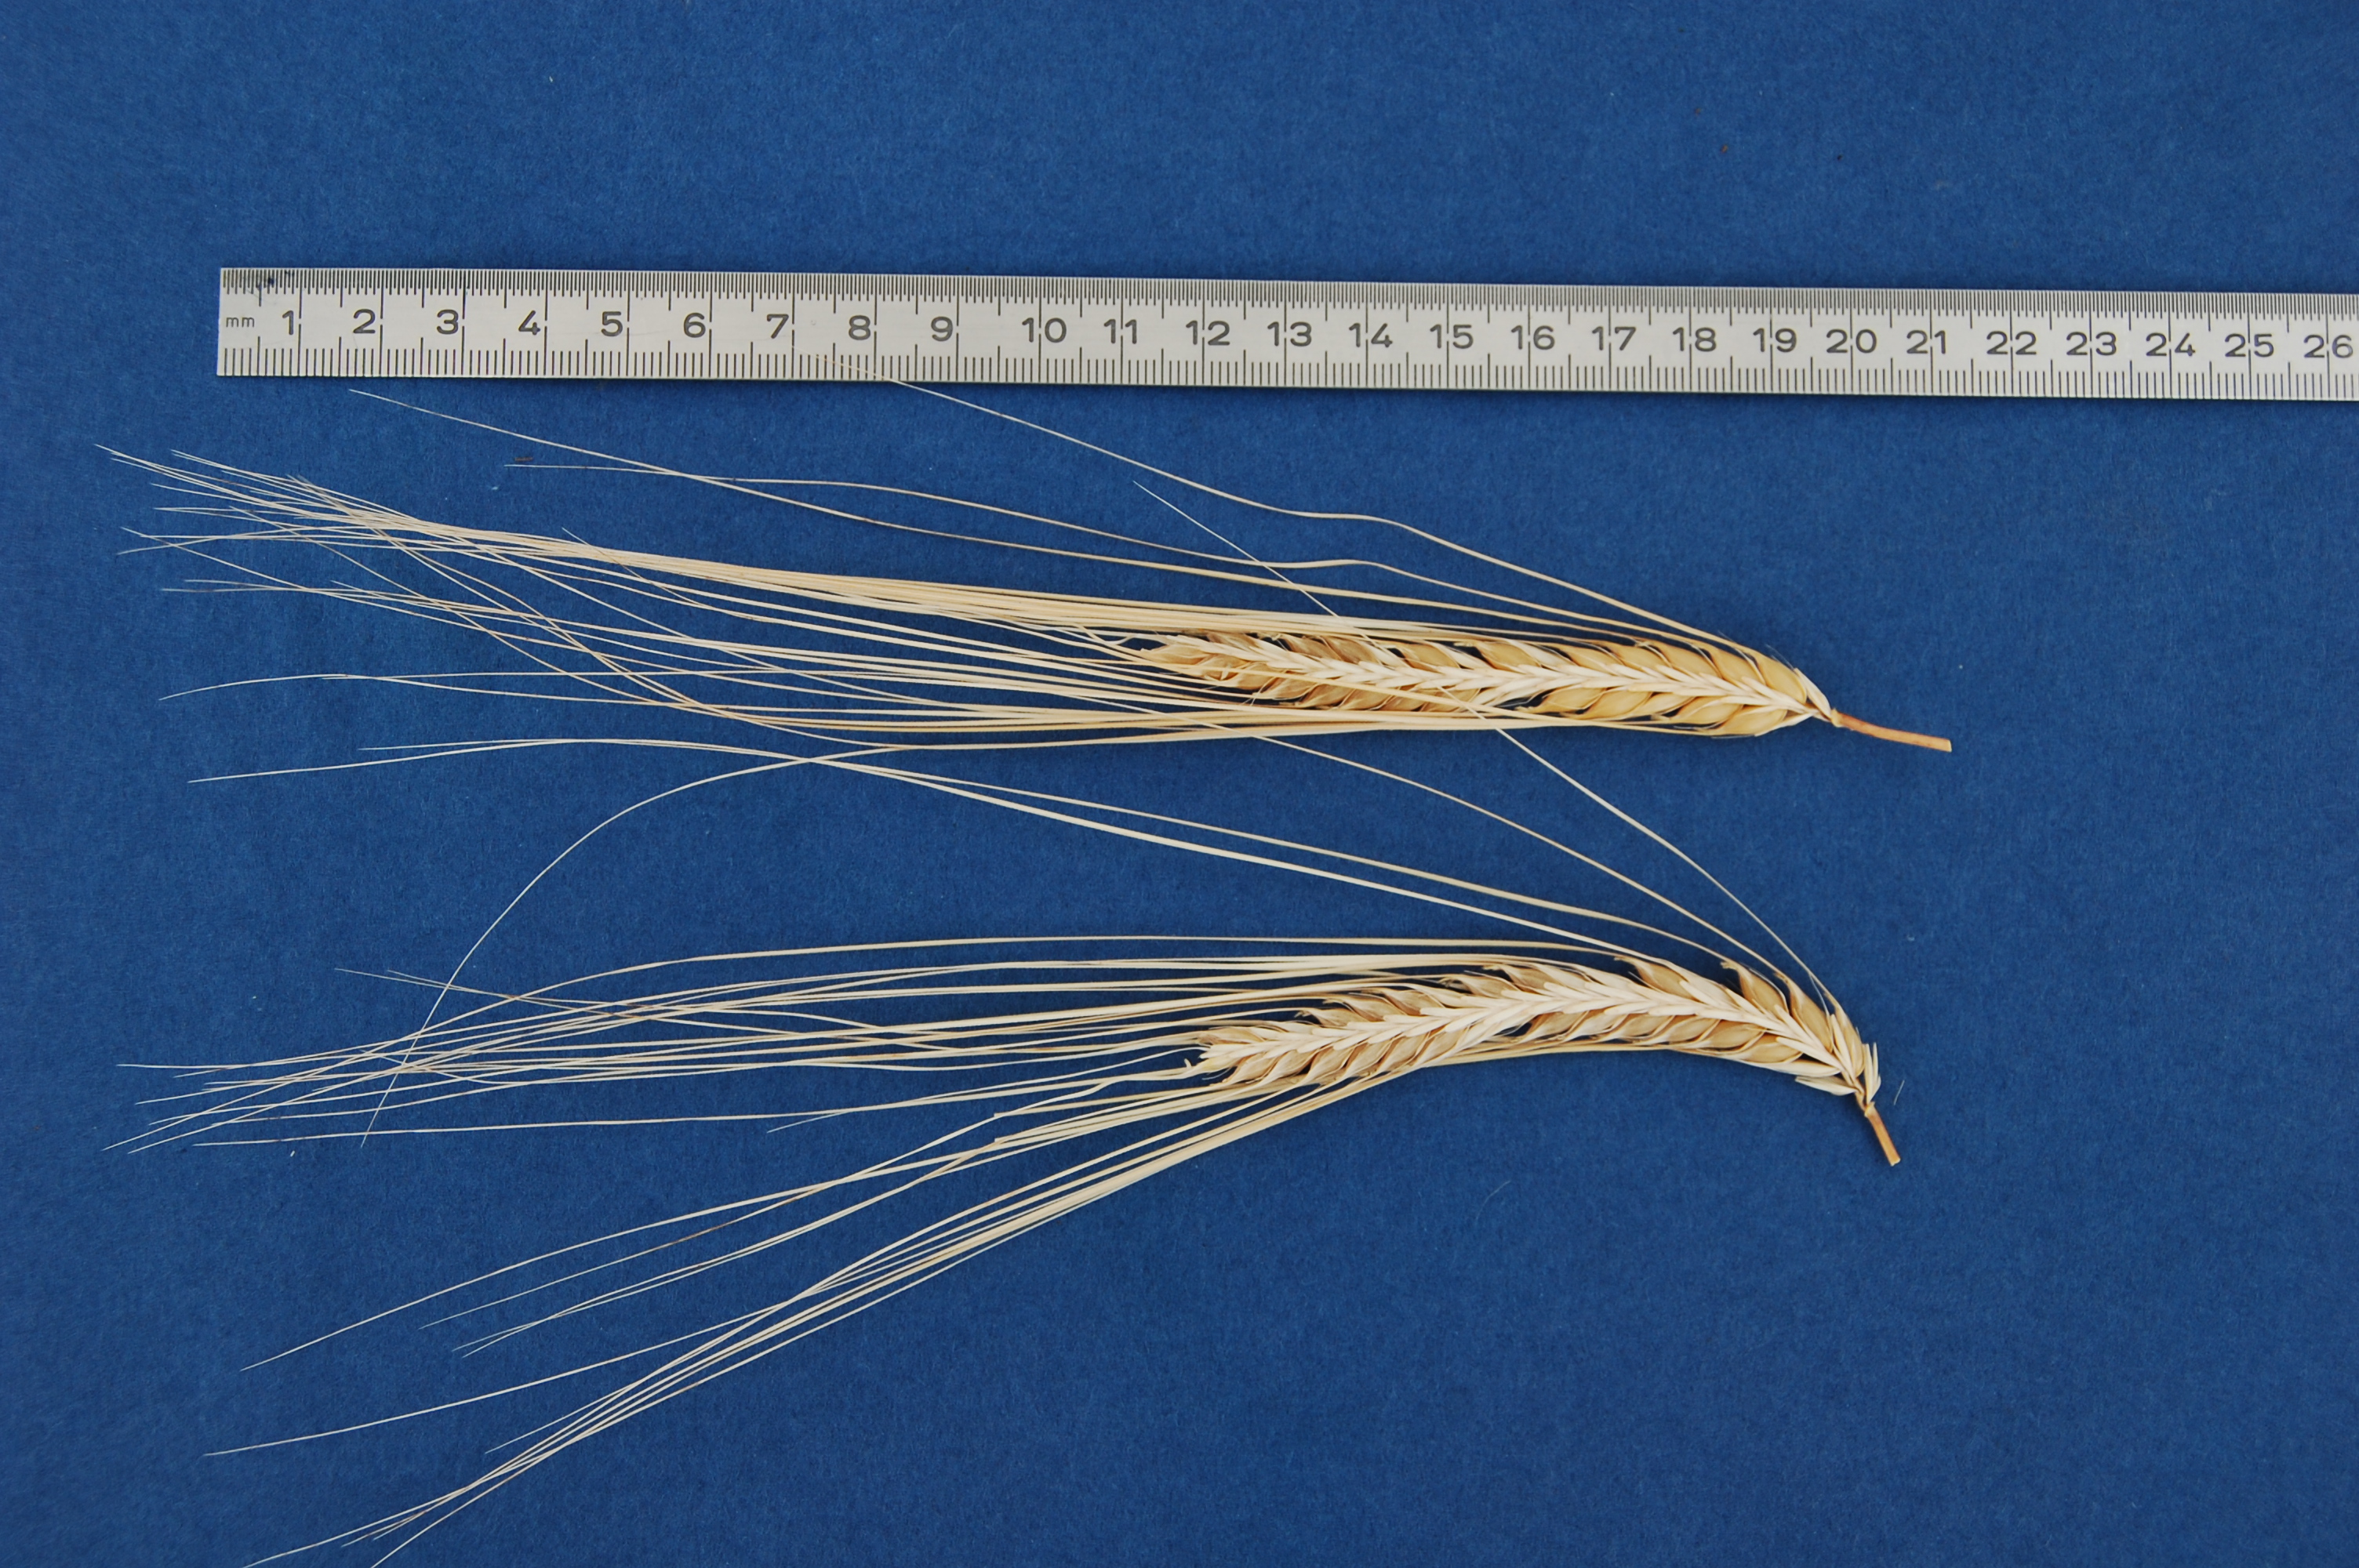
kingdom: Plantae
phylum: Tracheophyta
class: Liliopsida
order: Poales
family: Poaceae
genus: Hordeum
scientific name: Hordeum vulgare
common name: Common barley
